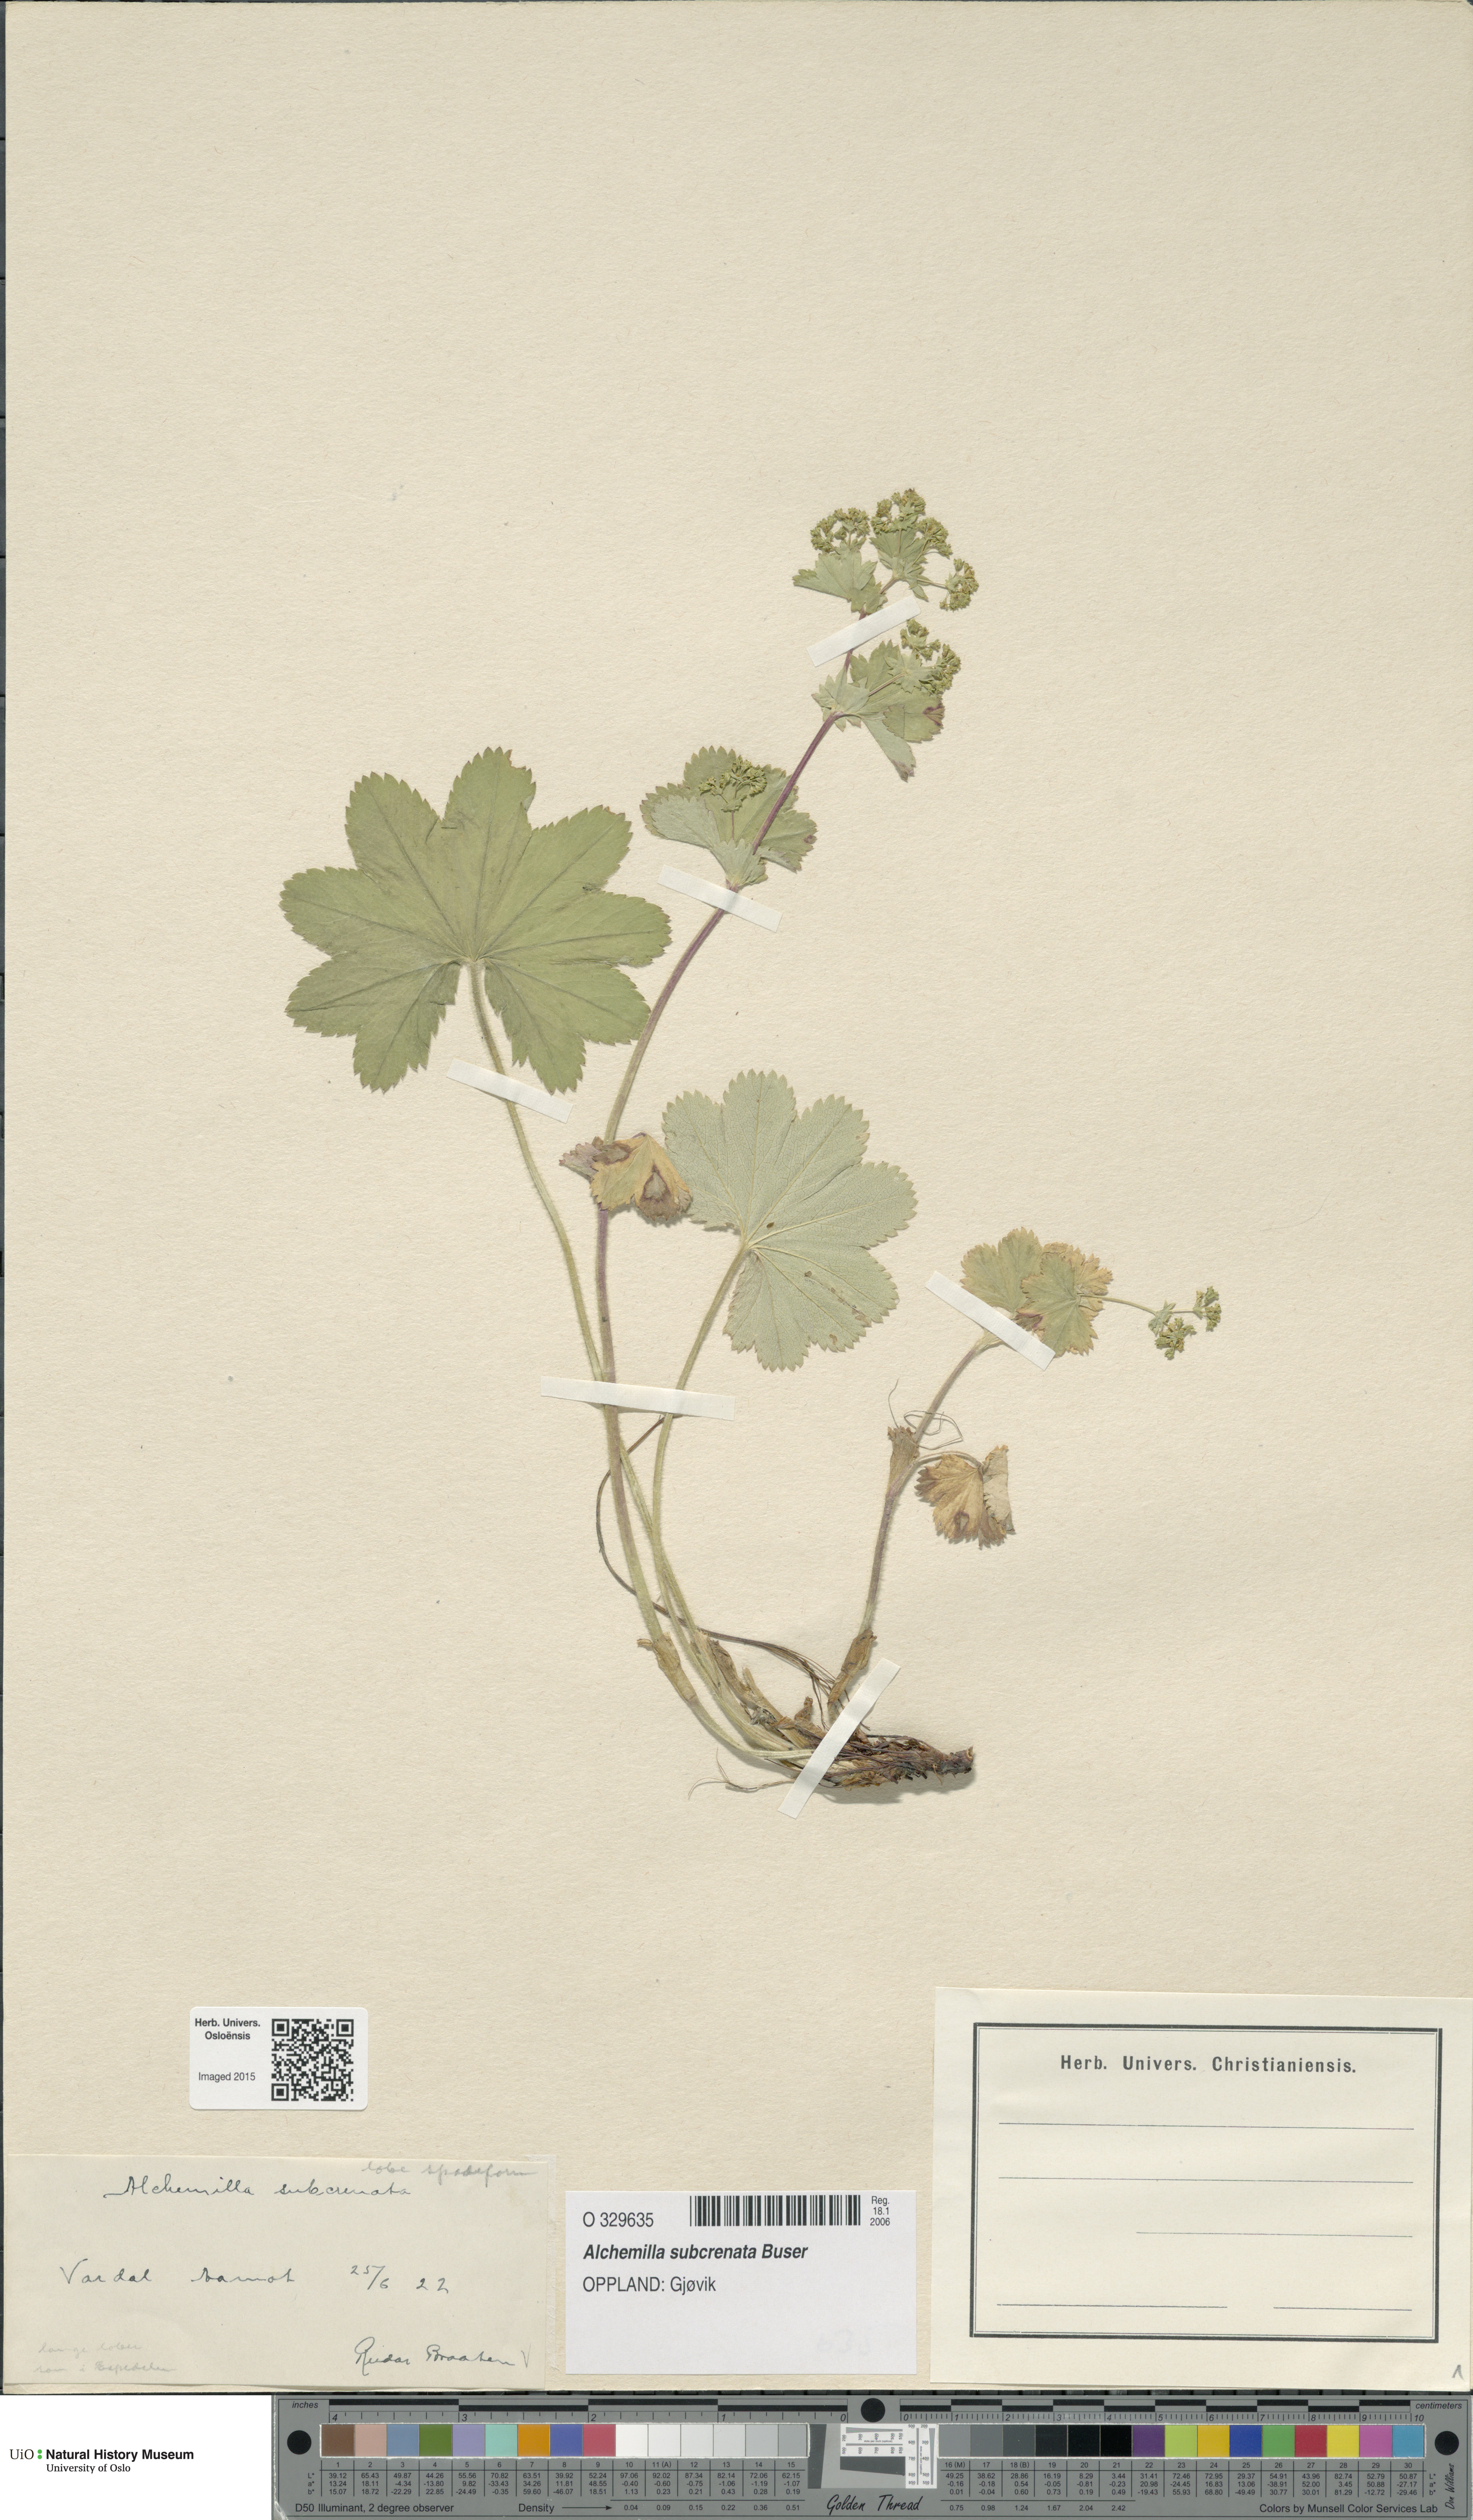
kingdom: Plantae
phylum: Tracheophyta
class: Magnoliopsida
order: Rosales
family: Rosaceae
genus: Alchemilla
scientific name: Alchemilla subcrenata
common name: Broadtooth lady's mantle
